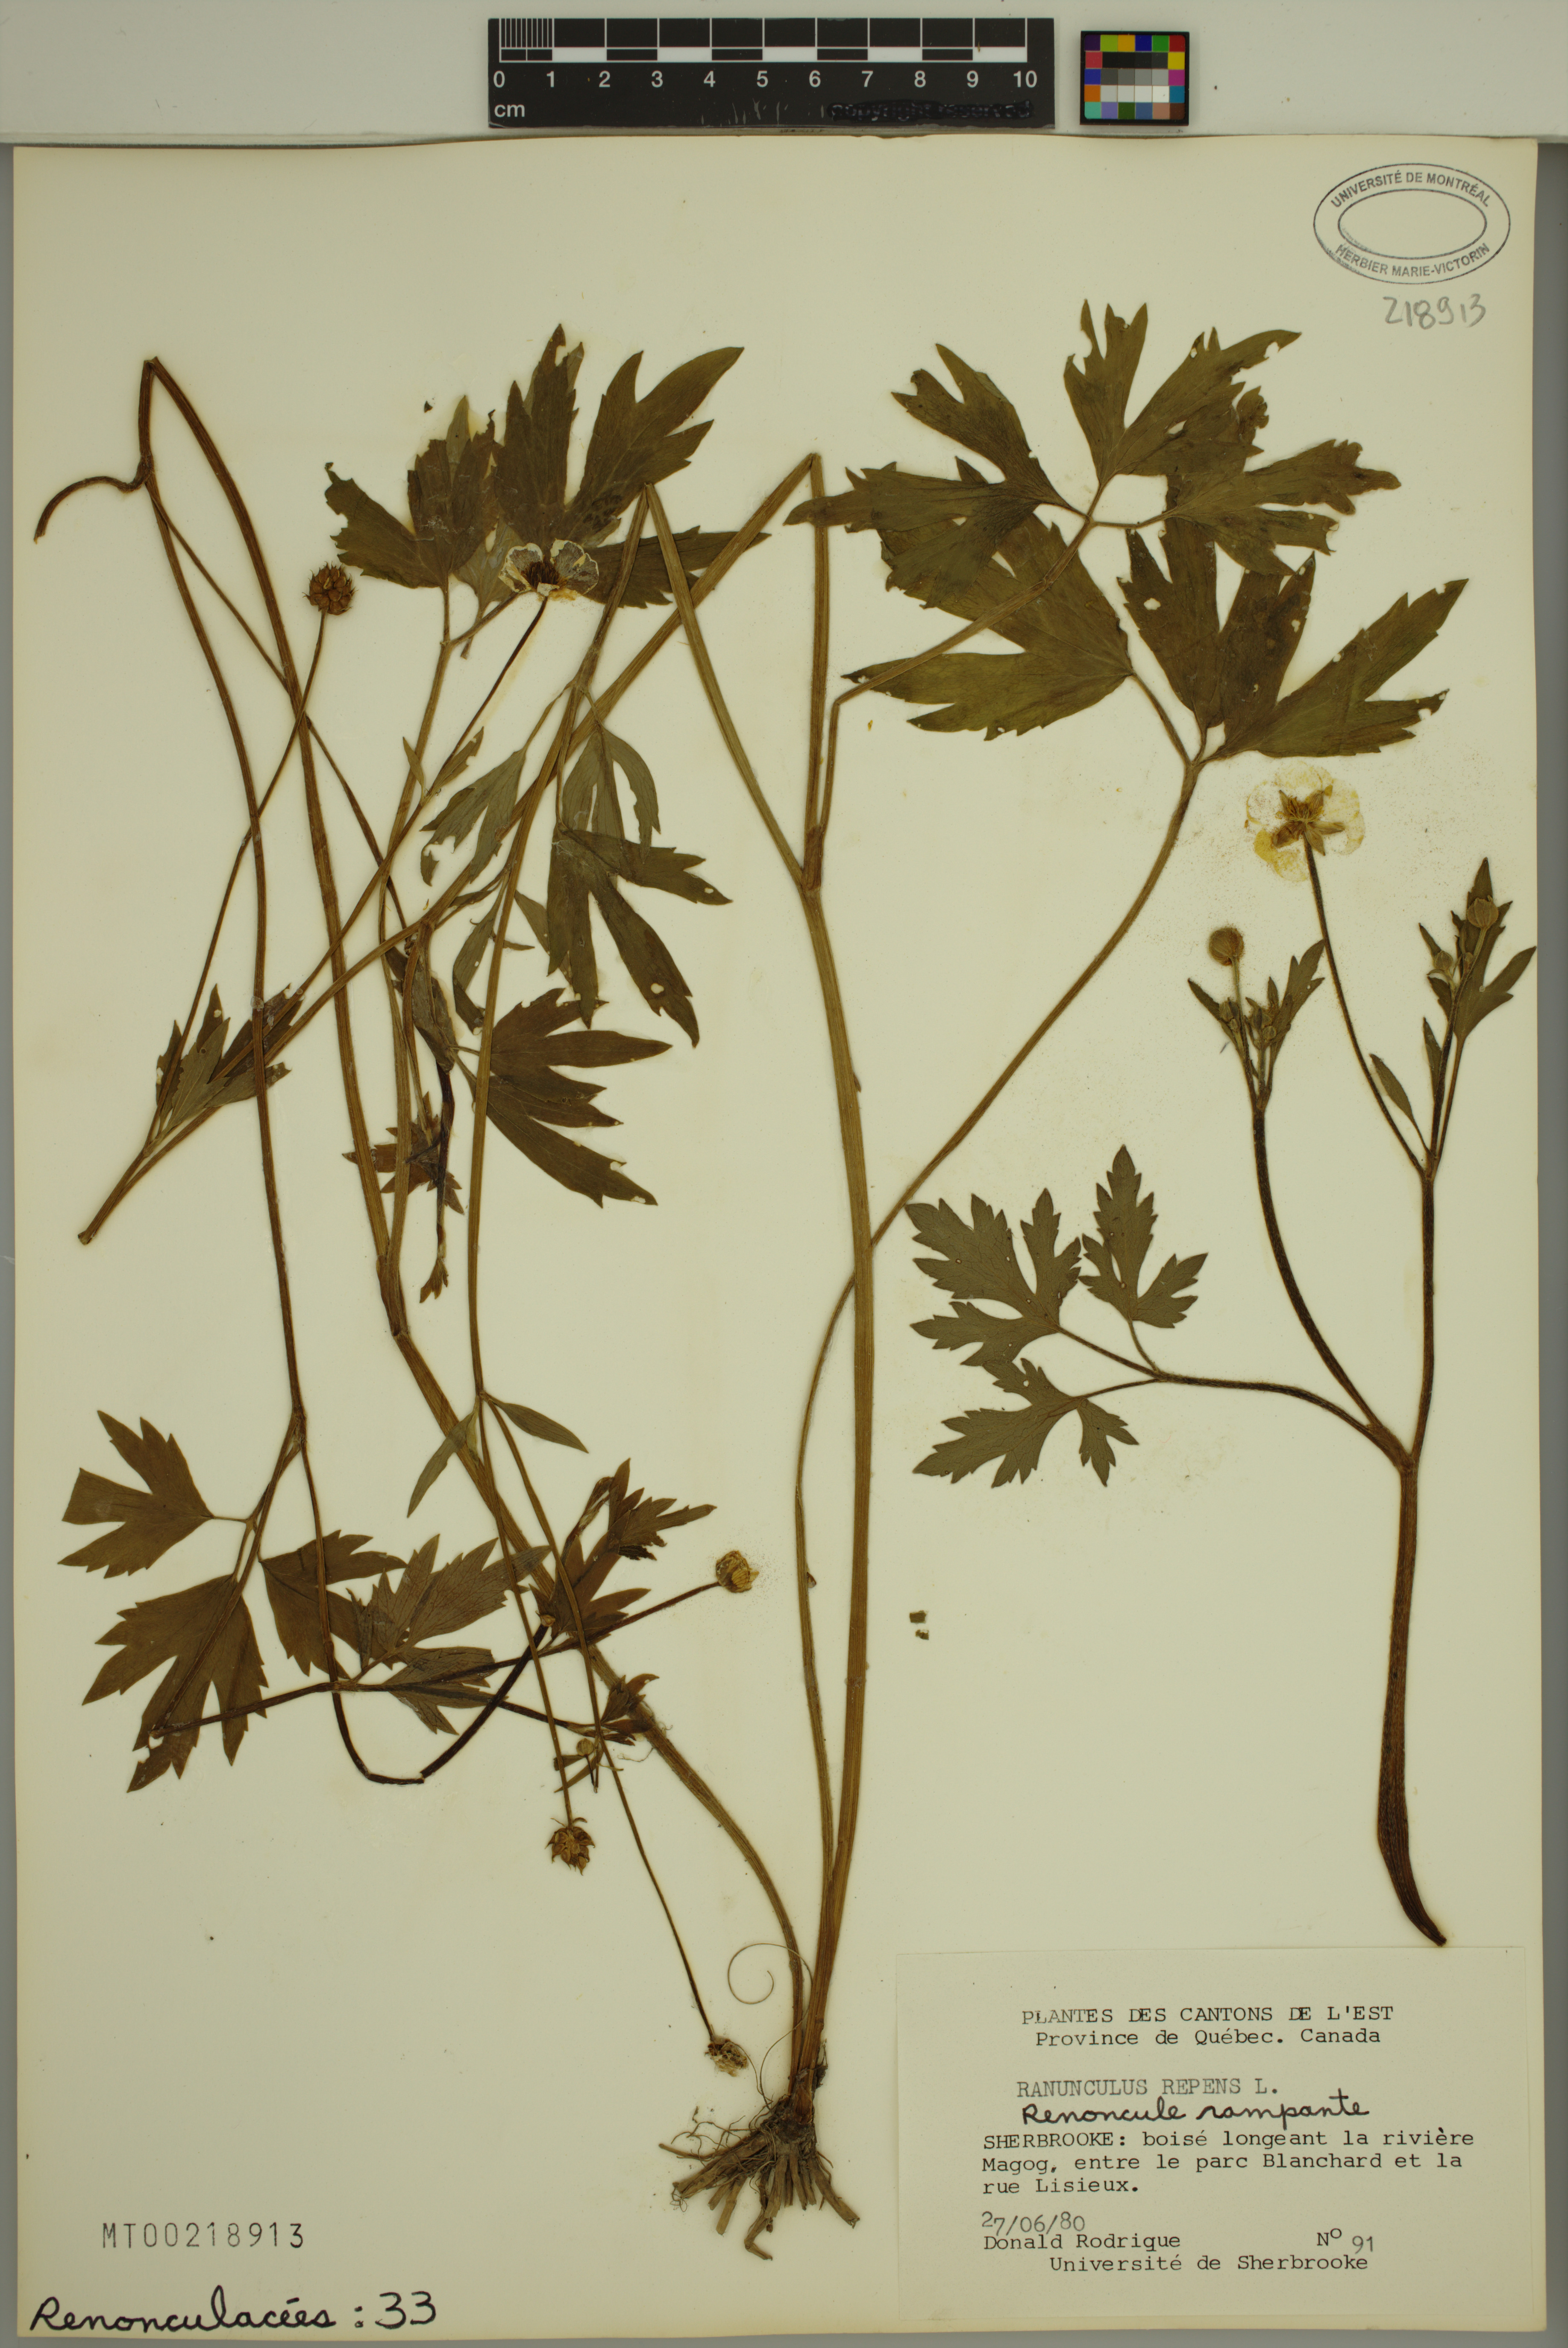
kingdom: Plantae
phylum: Tracheophyta
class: Magnoliopsida
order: Ranunculales
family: Ranunculaceae
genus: Ranunculus
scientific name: Ranunculus repens
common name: Creeping buttercup
